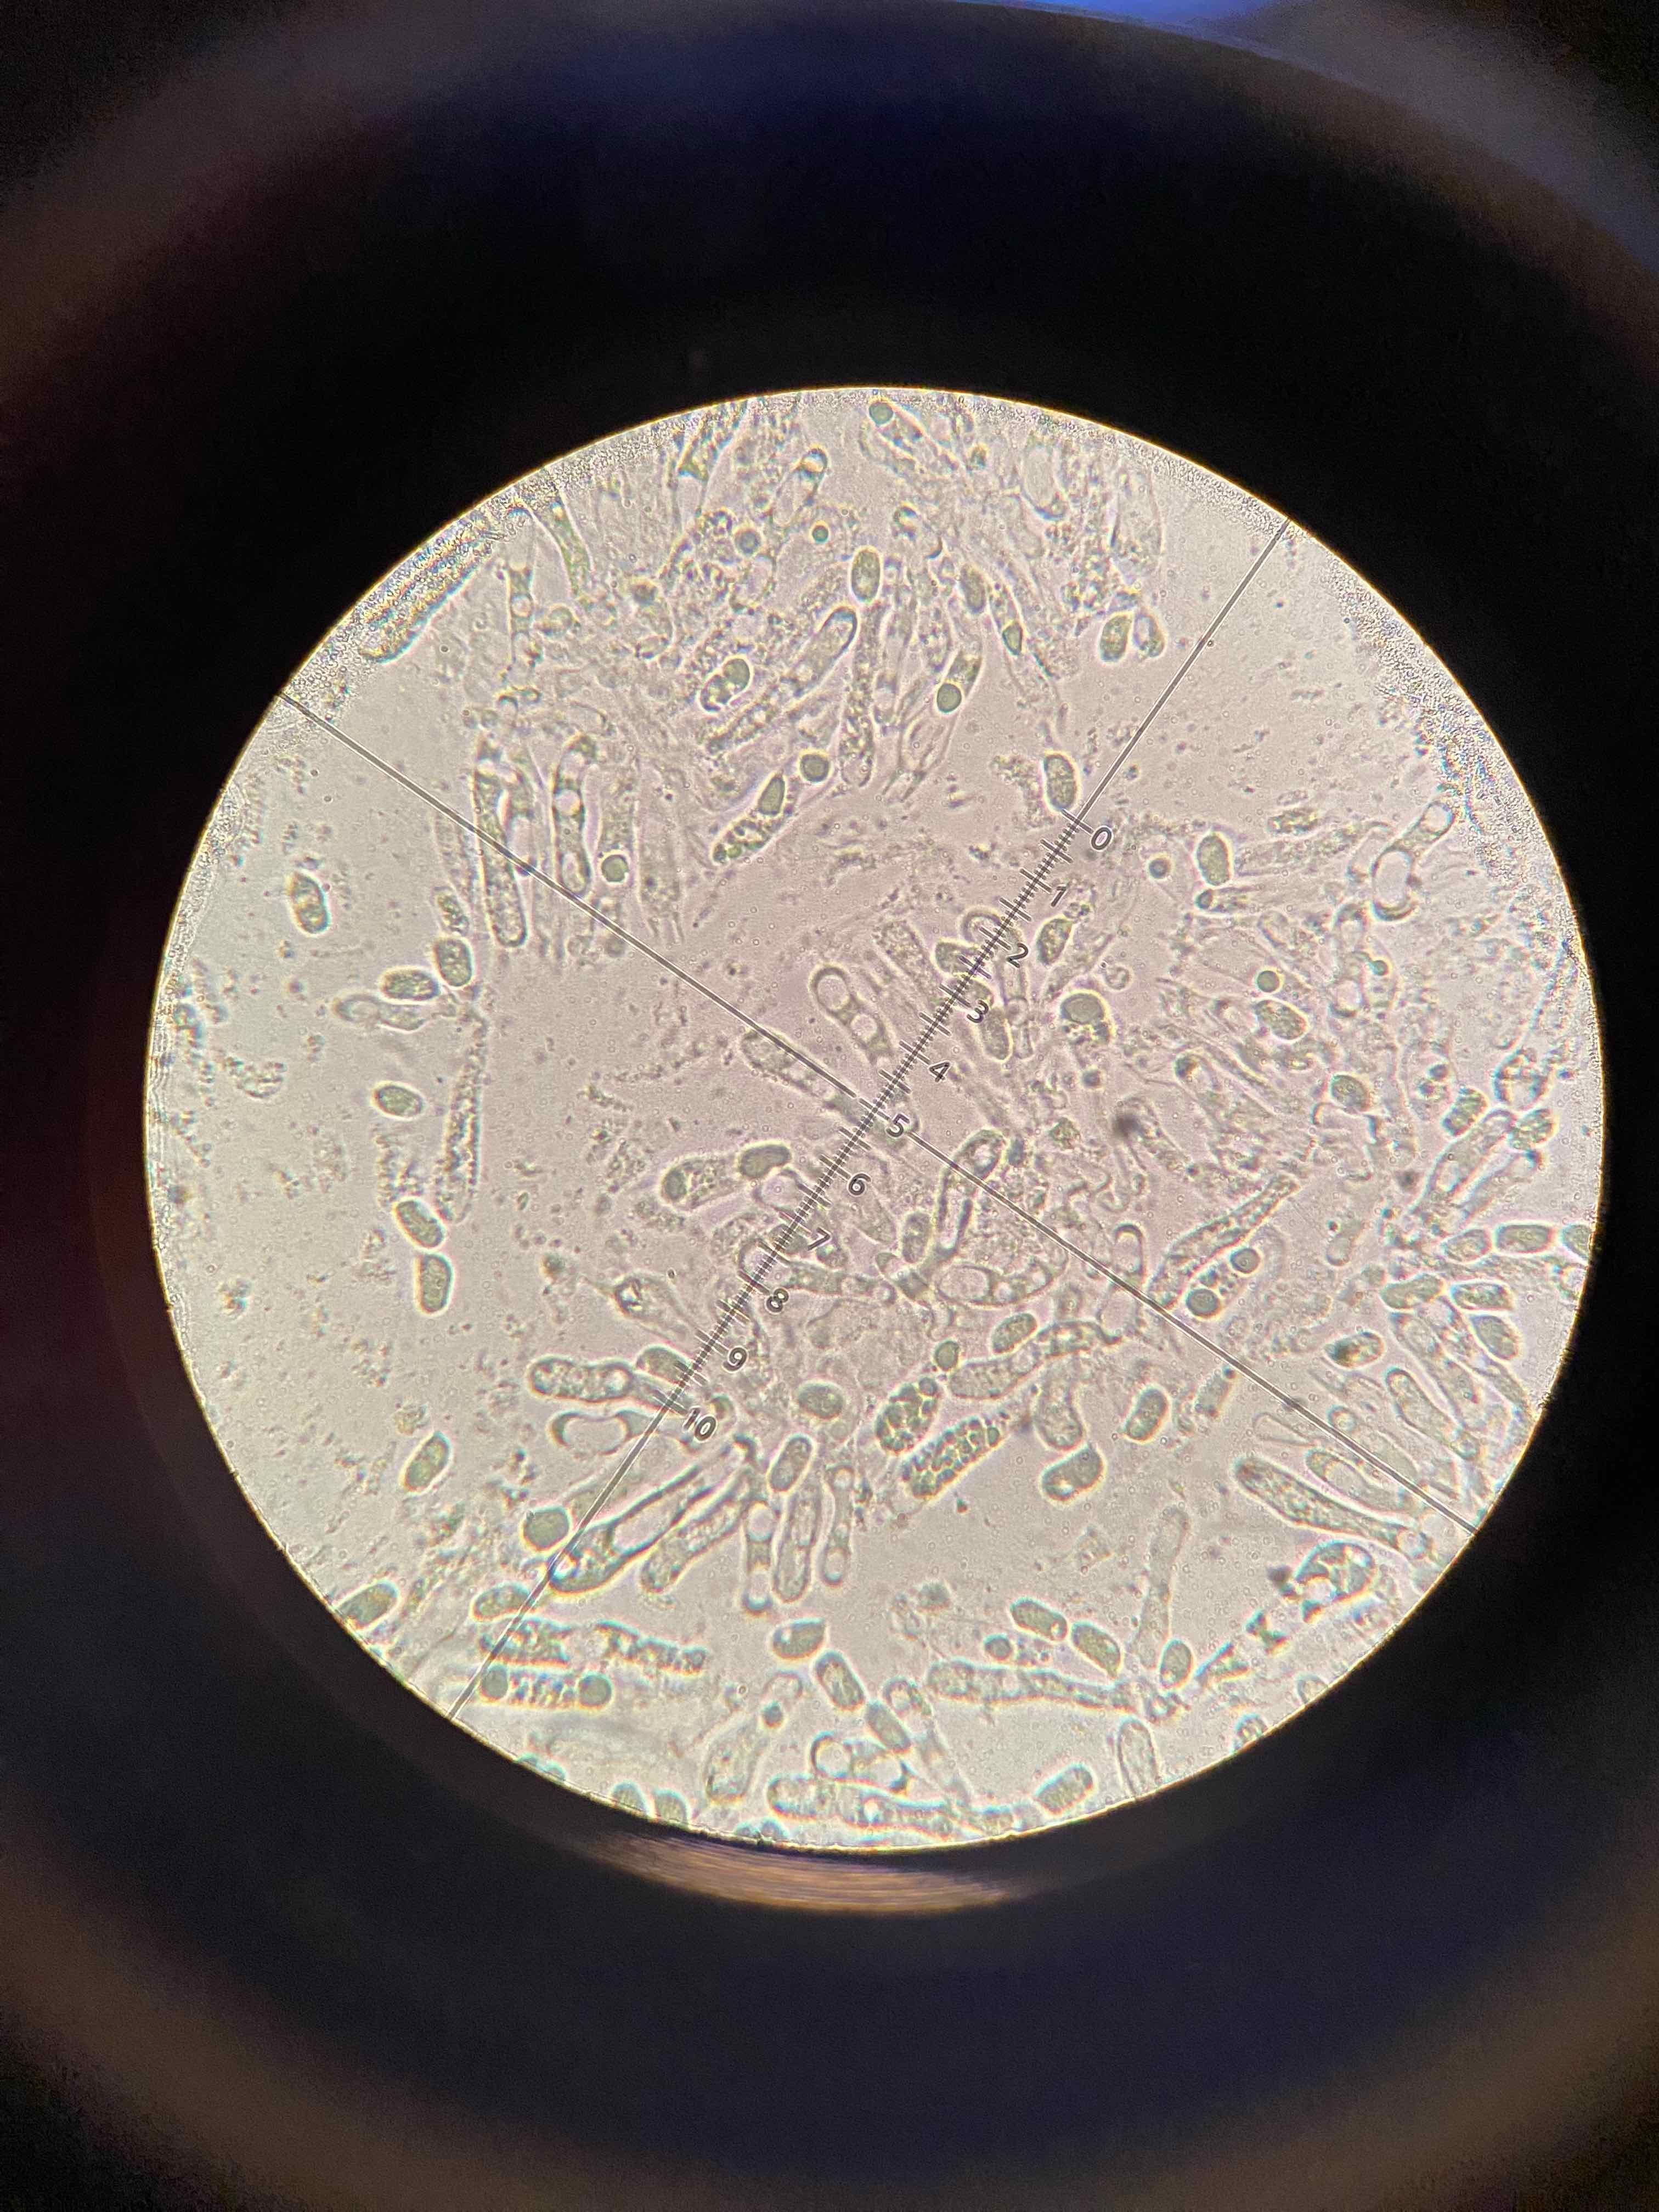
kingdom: Fungi
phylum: Basidiomycota
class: Agaricomycetes
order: Agaricales
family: Hygrophoraceae
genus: Hygrocybe
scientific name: Hygrocybe glutinipes
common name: slimstokket vokshat
